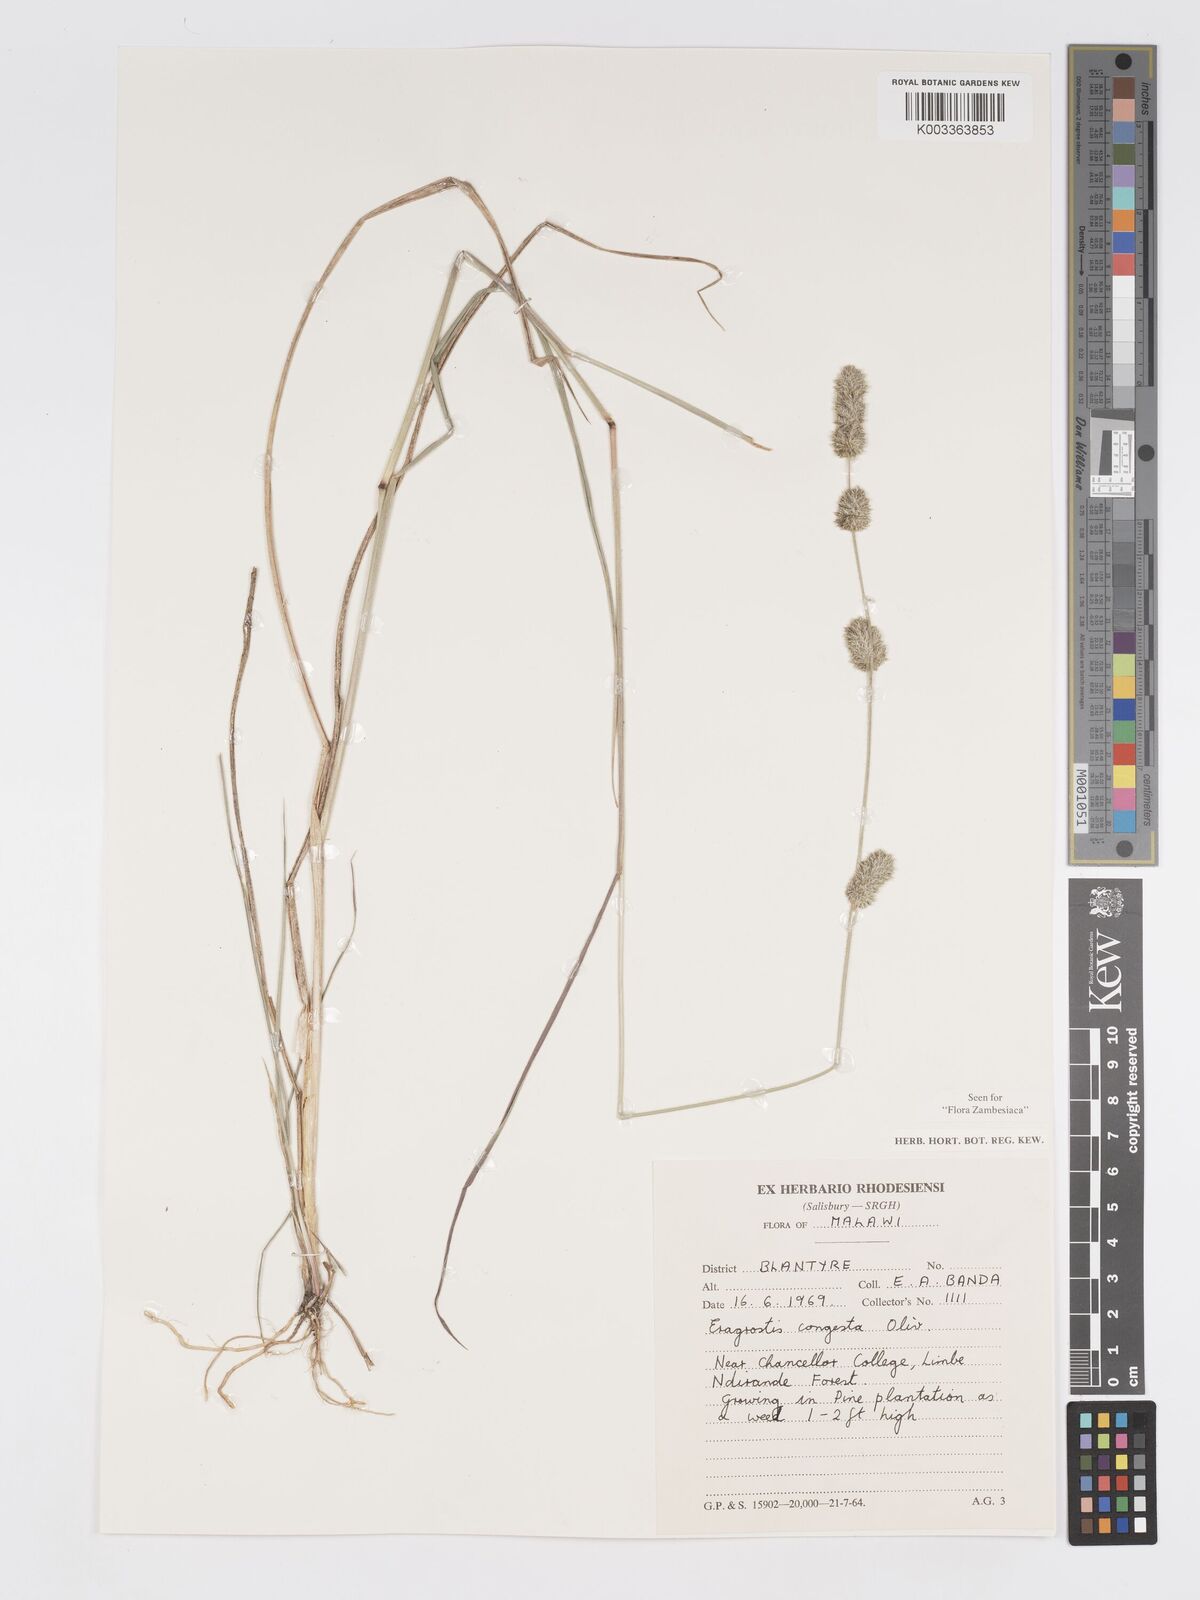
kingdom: Plantae
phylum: Tracheophyta
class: Liliopsida
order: Poales
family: Poaceae
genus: Eragrostis
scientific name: Eragrostis congesta
